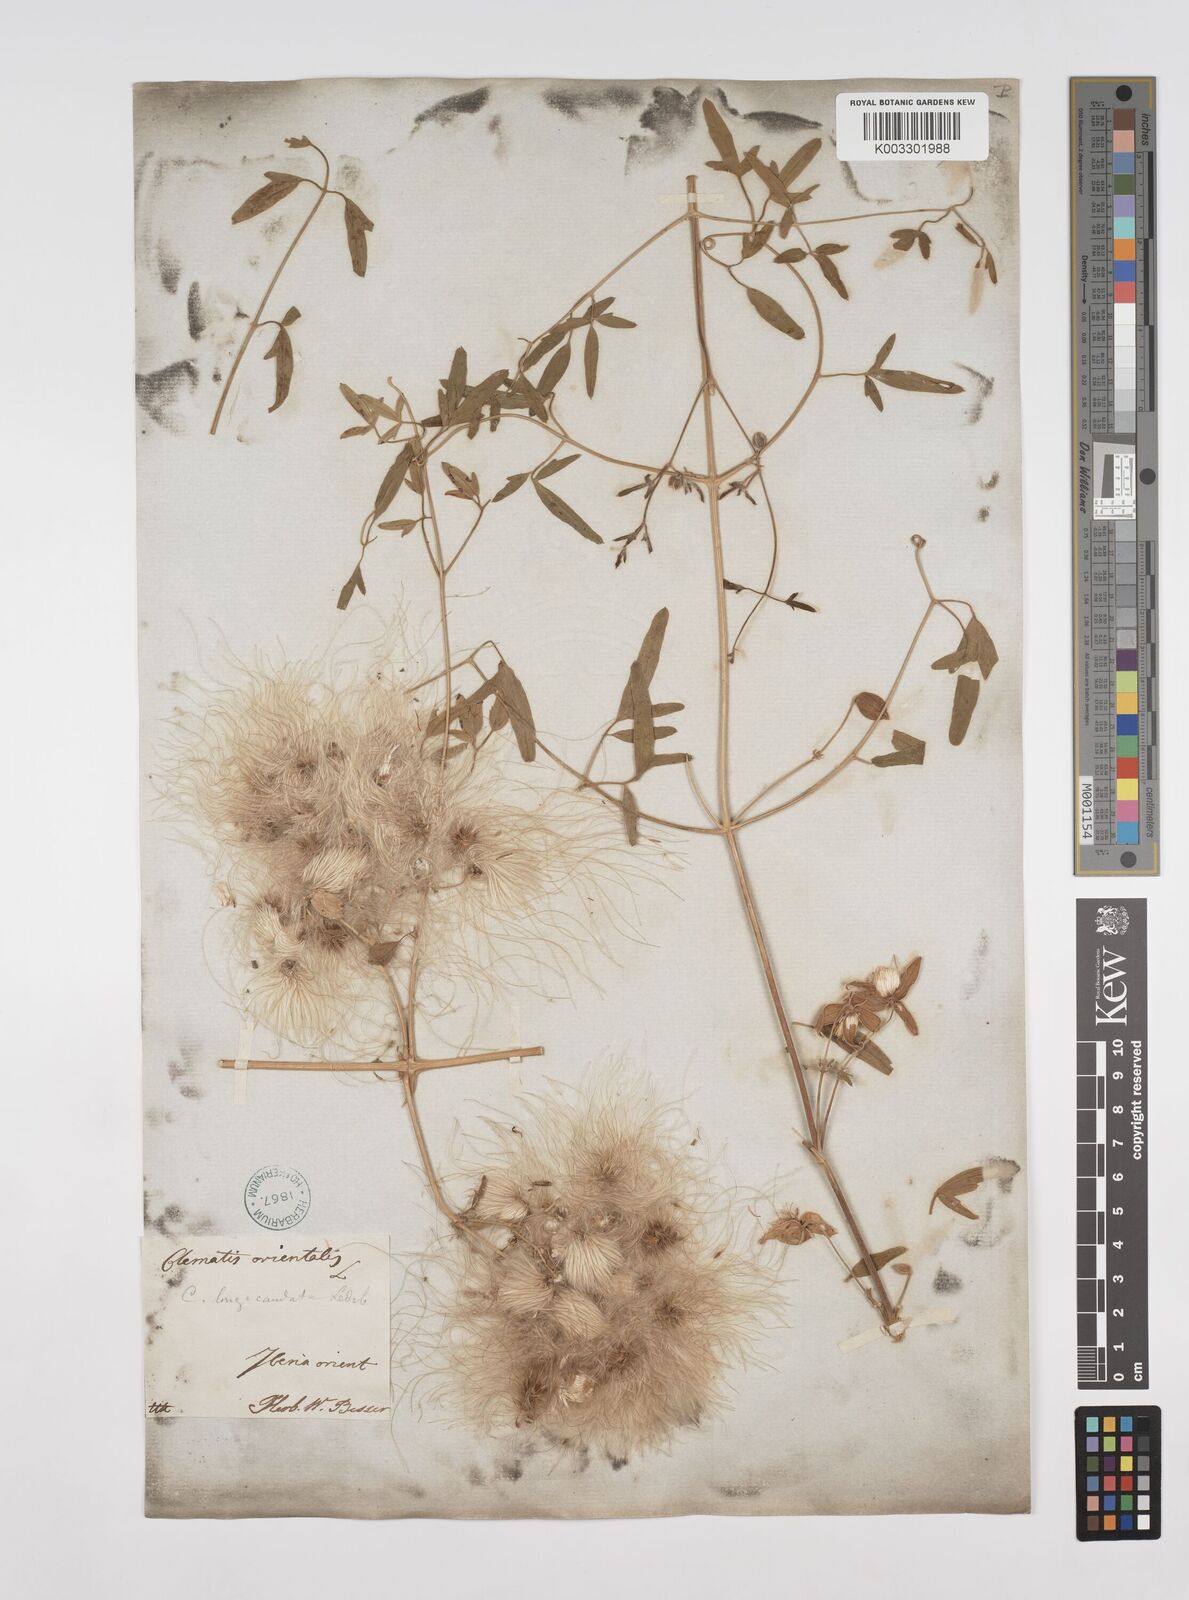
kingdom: Plantae
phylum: Tracheophyta
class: Magnoliopsida
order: Ranunculales
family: Ranunculaceae
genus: Clematis
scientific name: Clematis orientalis
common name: Oriental virgin's-bower
